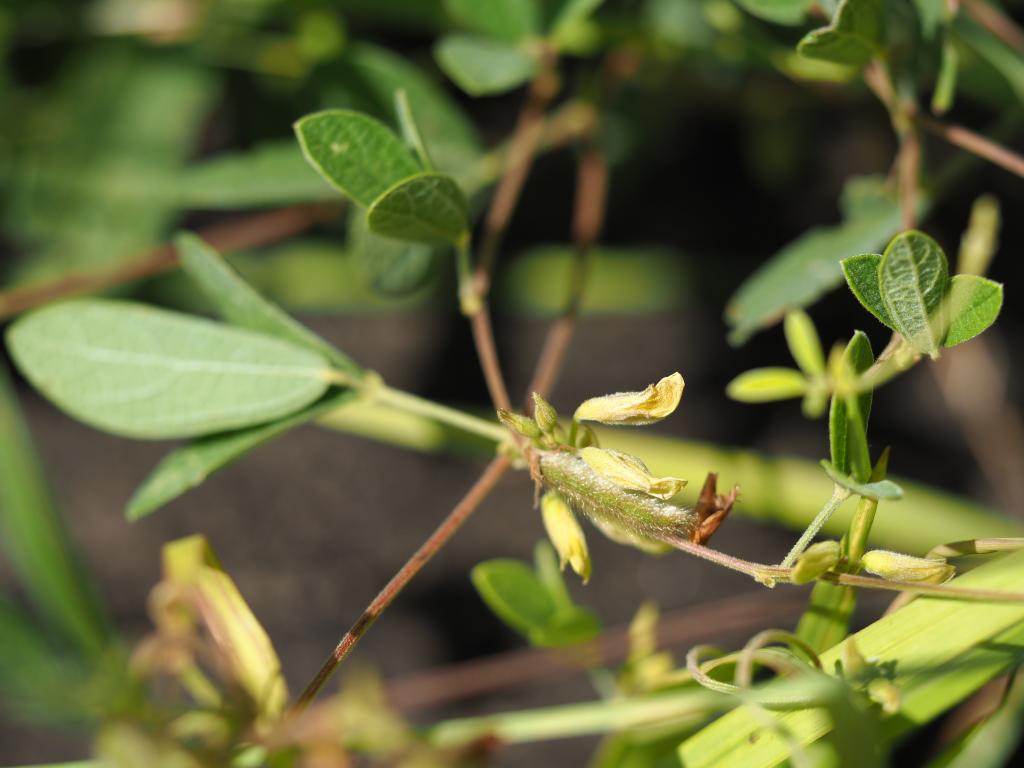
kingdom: Plantae
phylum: Tracheophyta
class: Magnoliopsida
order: Fabales
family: Fabaceae
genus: Cajanus
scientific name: Cajanus scarabaeoides
